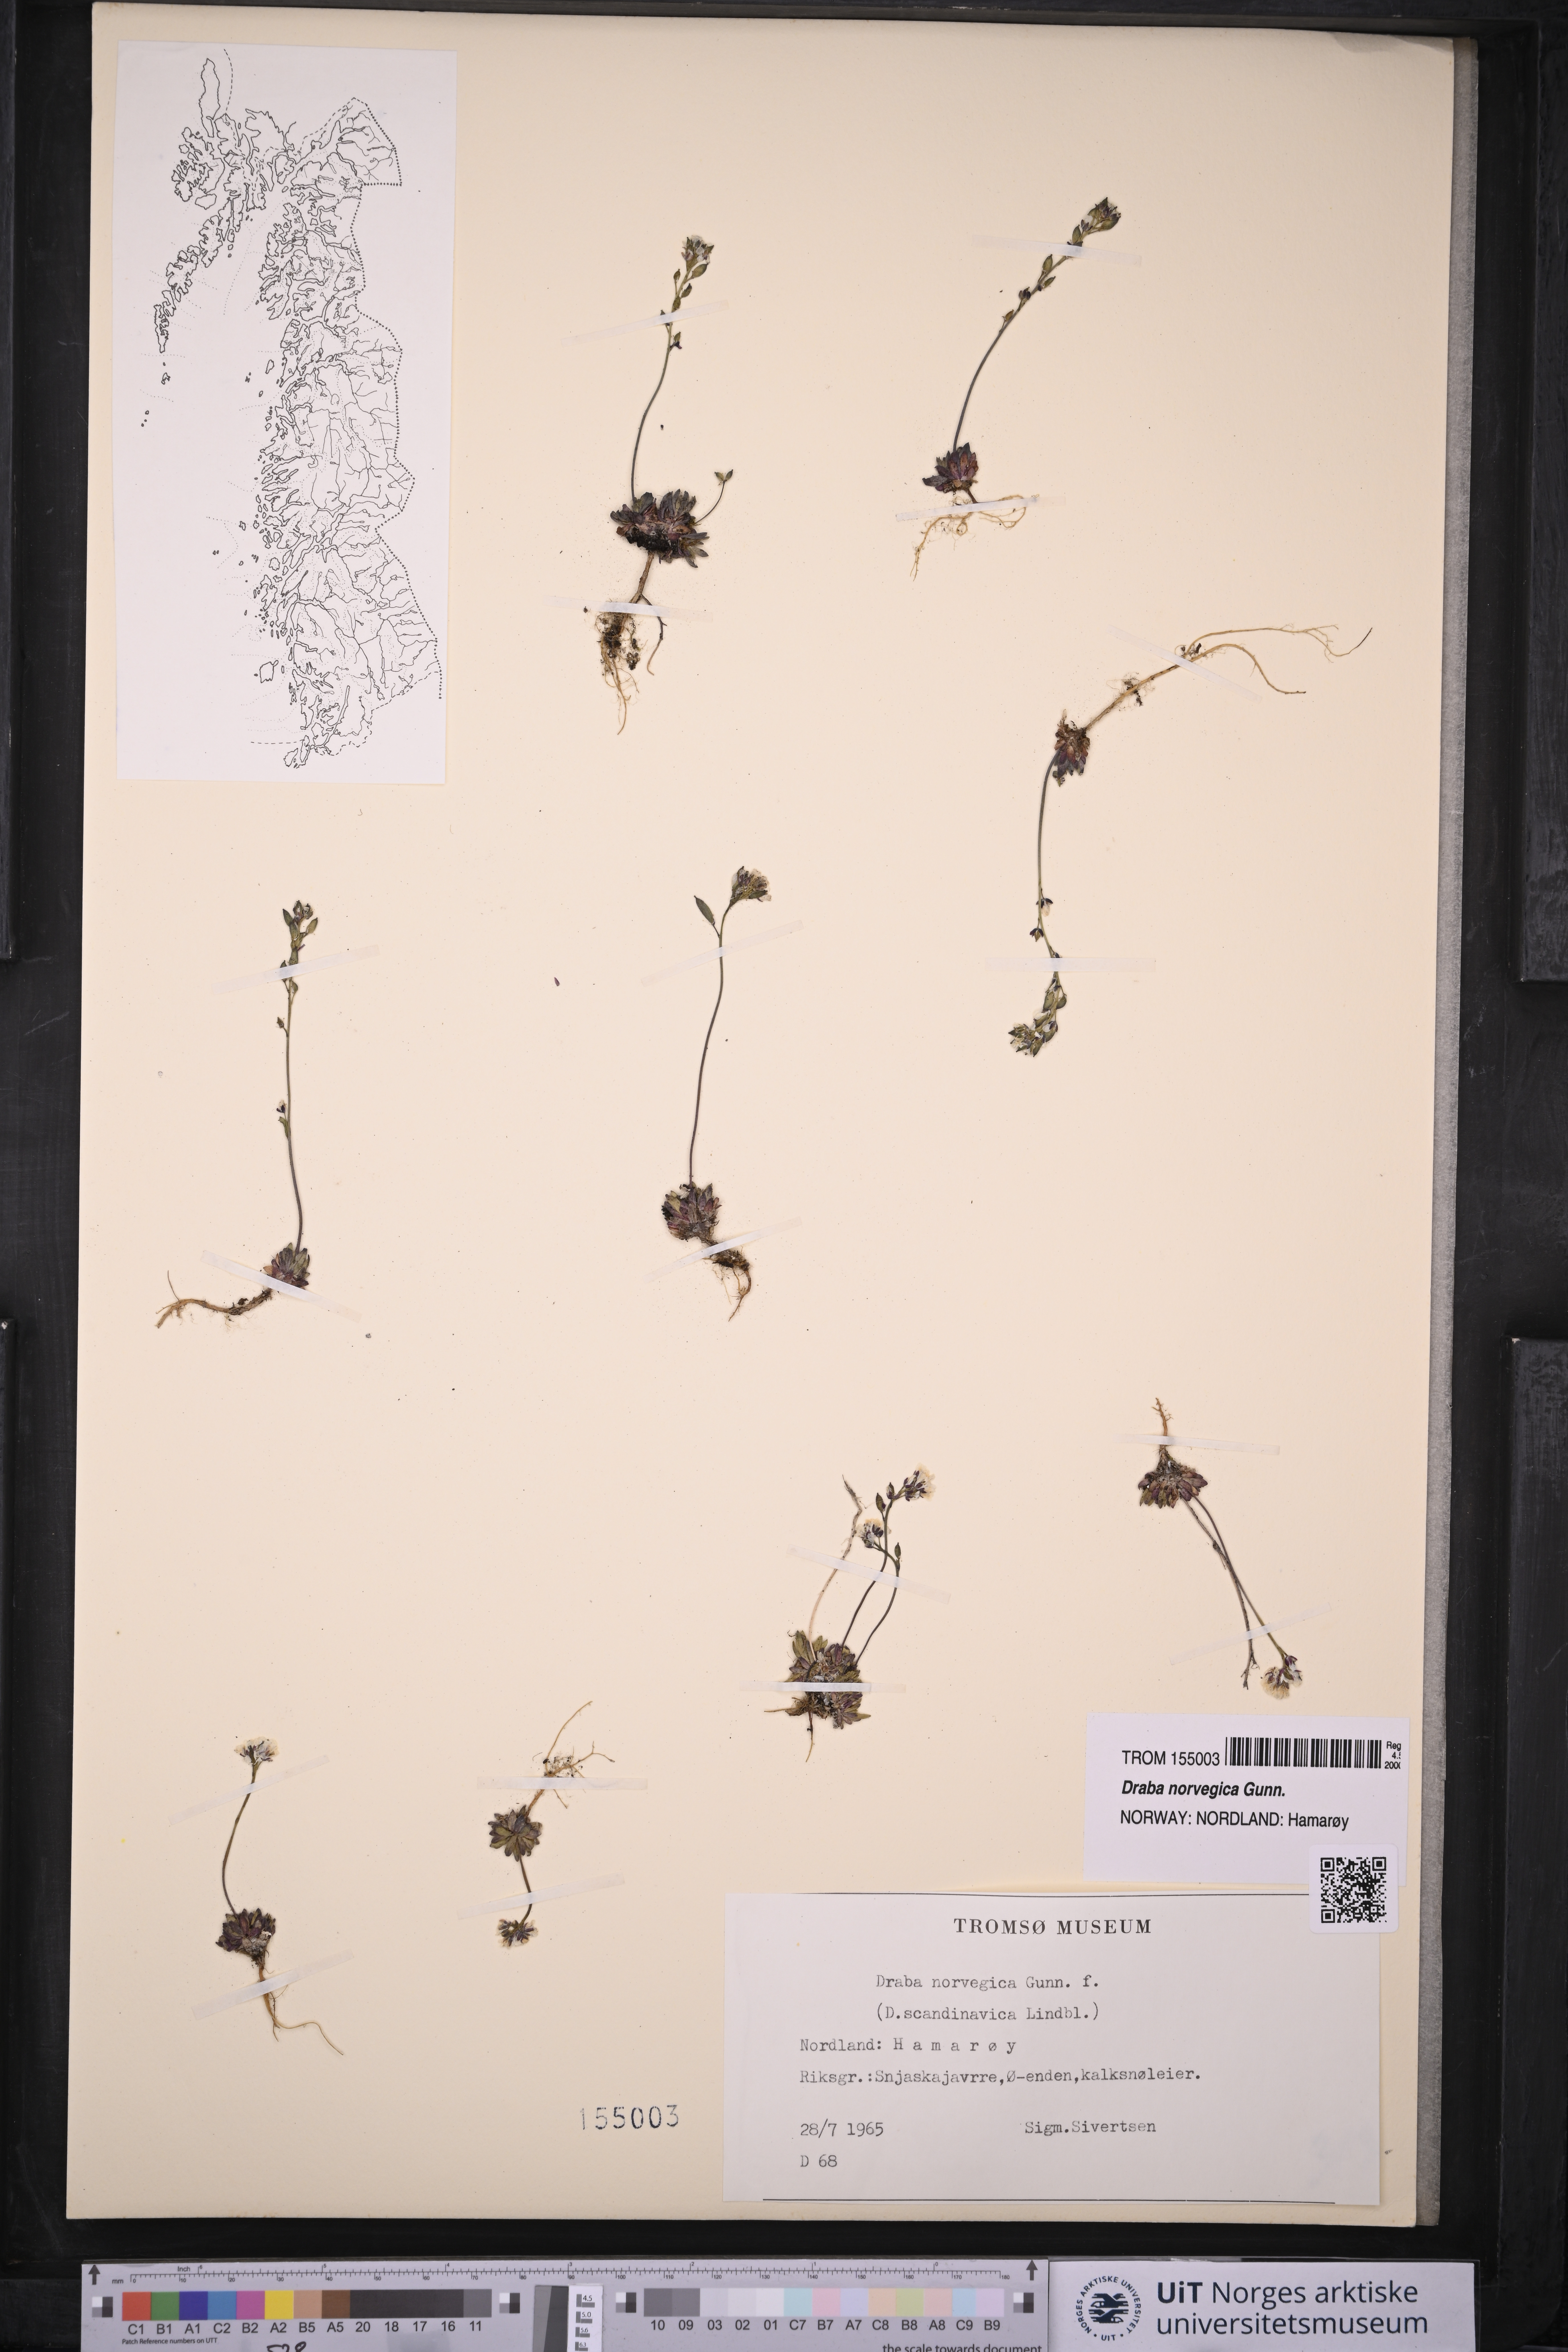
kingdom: Plantae
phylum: Tracheophyta
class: Magnoliopsida
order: Brassicales
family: Brassicaceae
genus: Draba
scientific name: Draba norvegica
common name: Rock whitlowgrass
